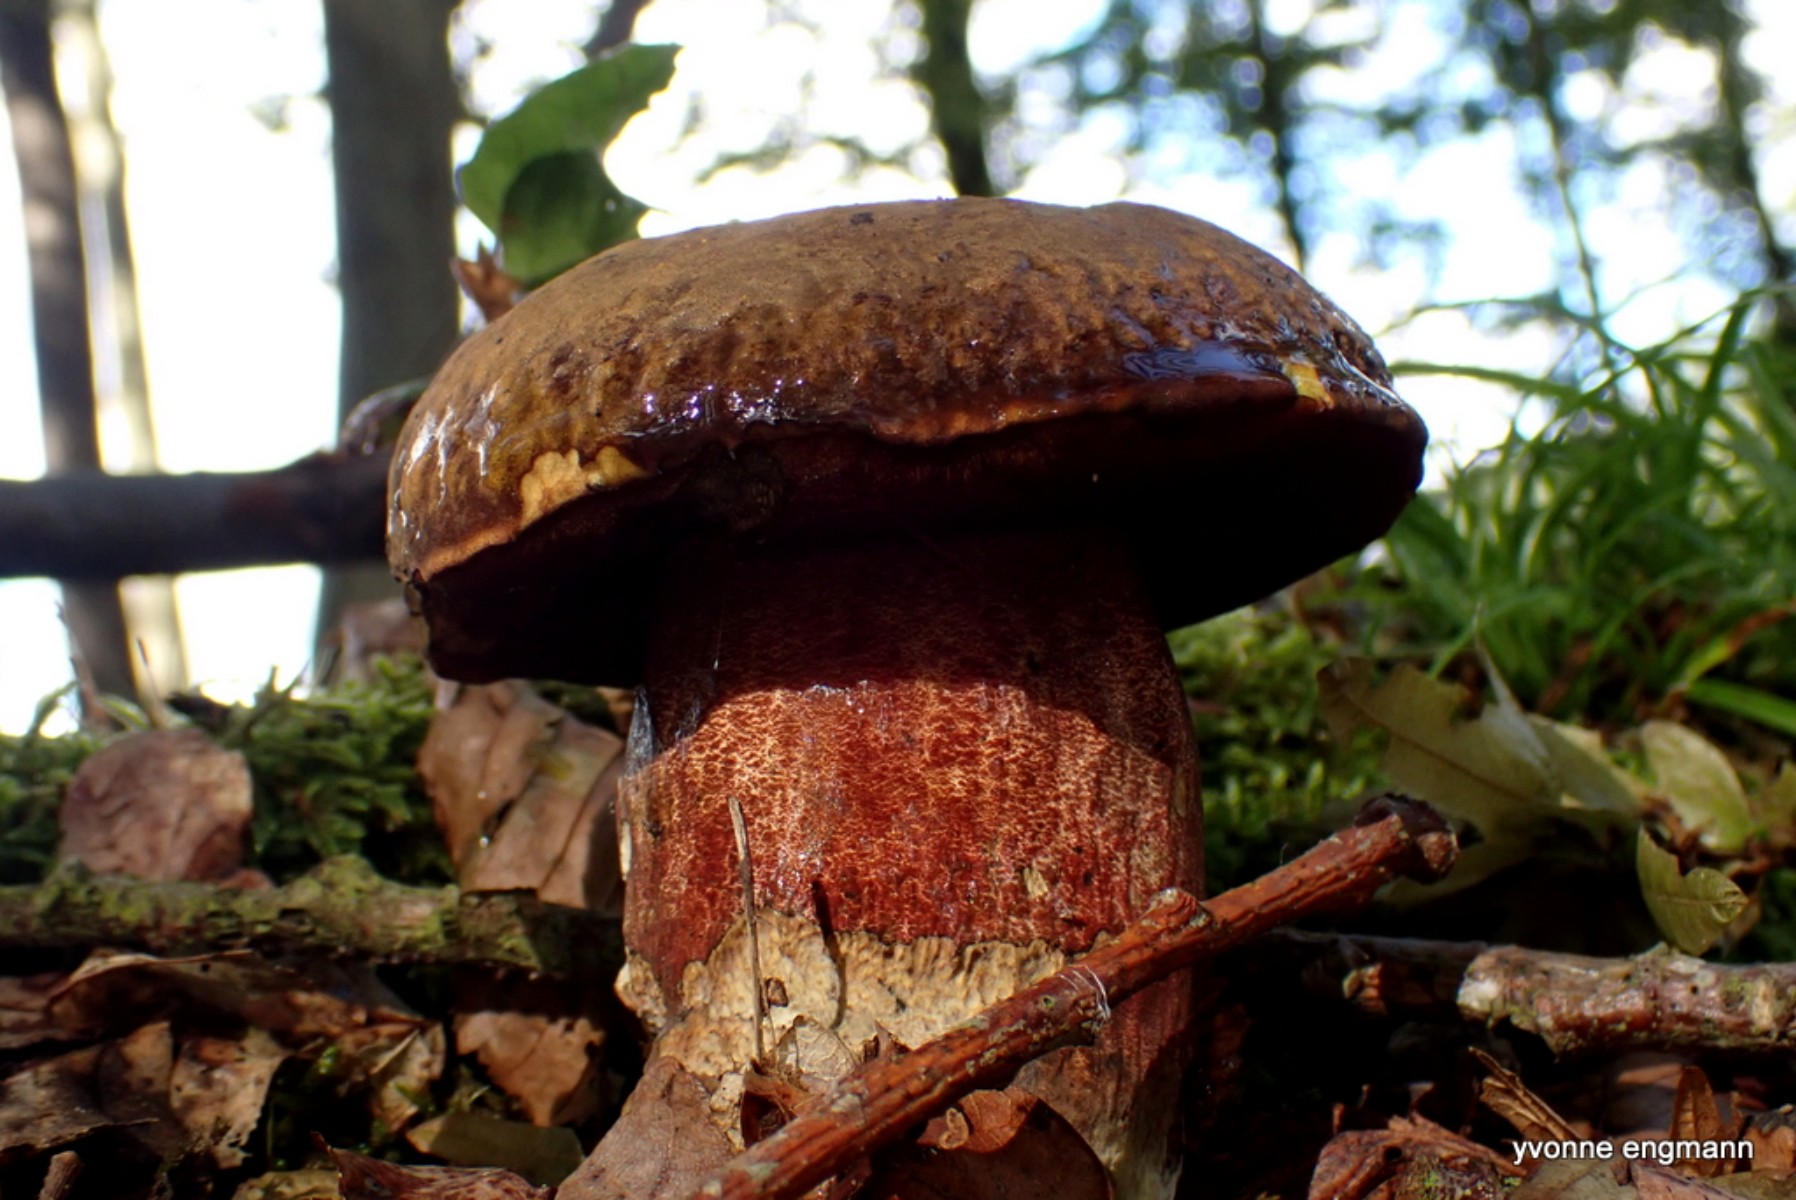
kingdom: Fungi
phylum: Basidiomycota
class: Agaricomycetes
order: Boletales
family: Boletaceae
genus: Neoboletus
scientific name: Neoboletus erythropus
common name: punktstokket indigorørhat
